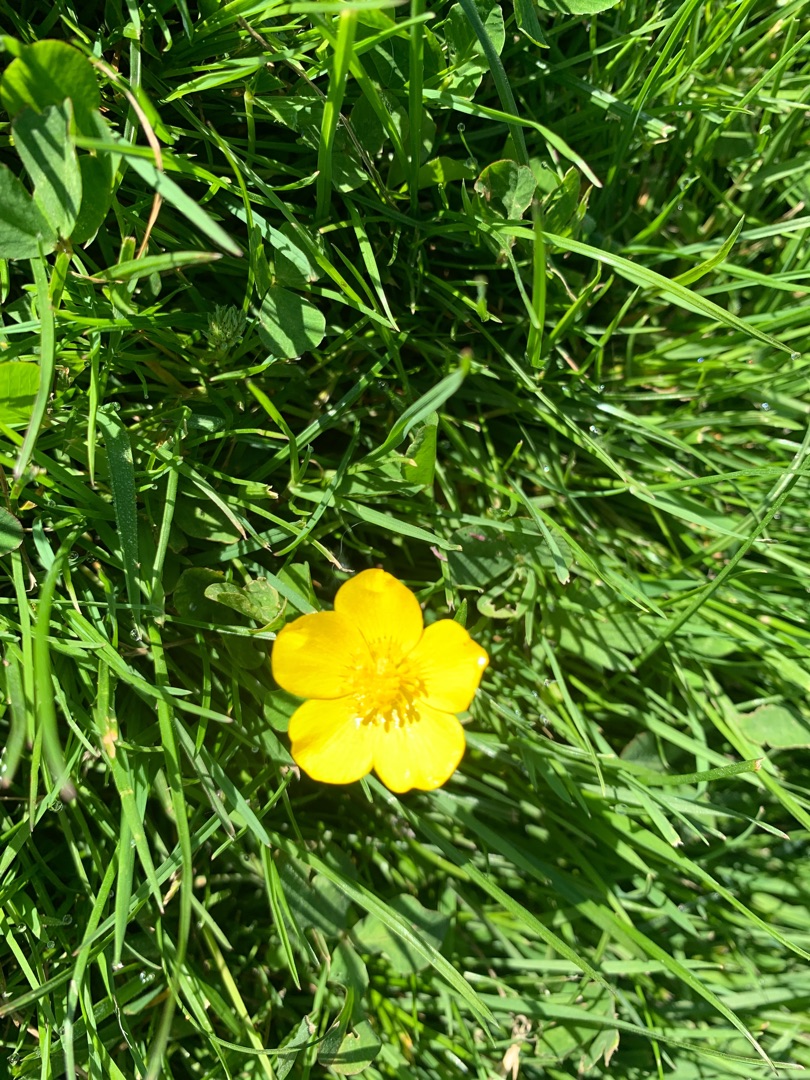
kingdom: Plantae
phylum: Tracheophyta
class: Magnoliopsida
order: Ranunculales
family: Ranunculaceae
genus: Ranunculus
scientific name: Ranunculus repens
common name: Lav ranunkel
